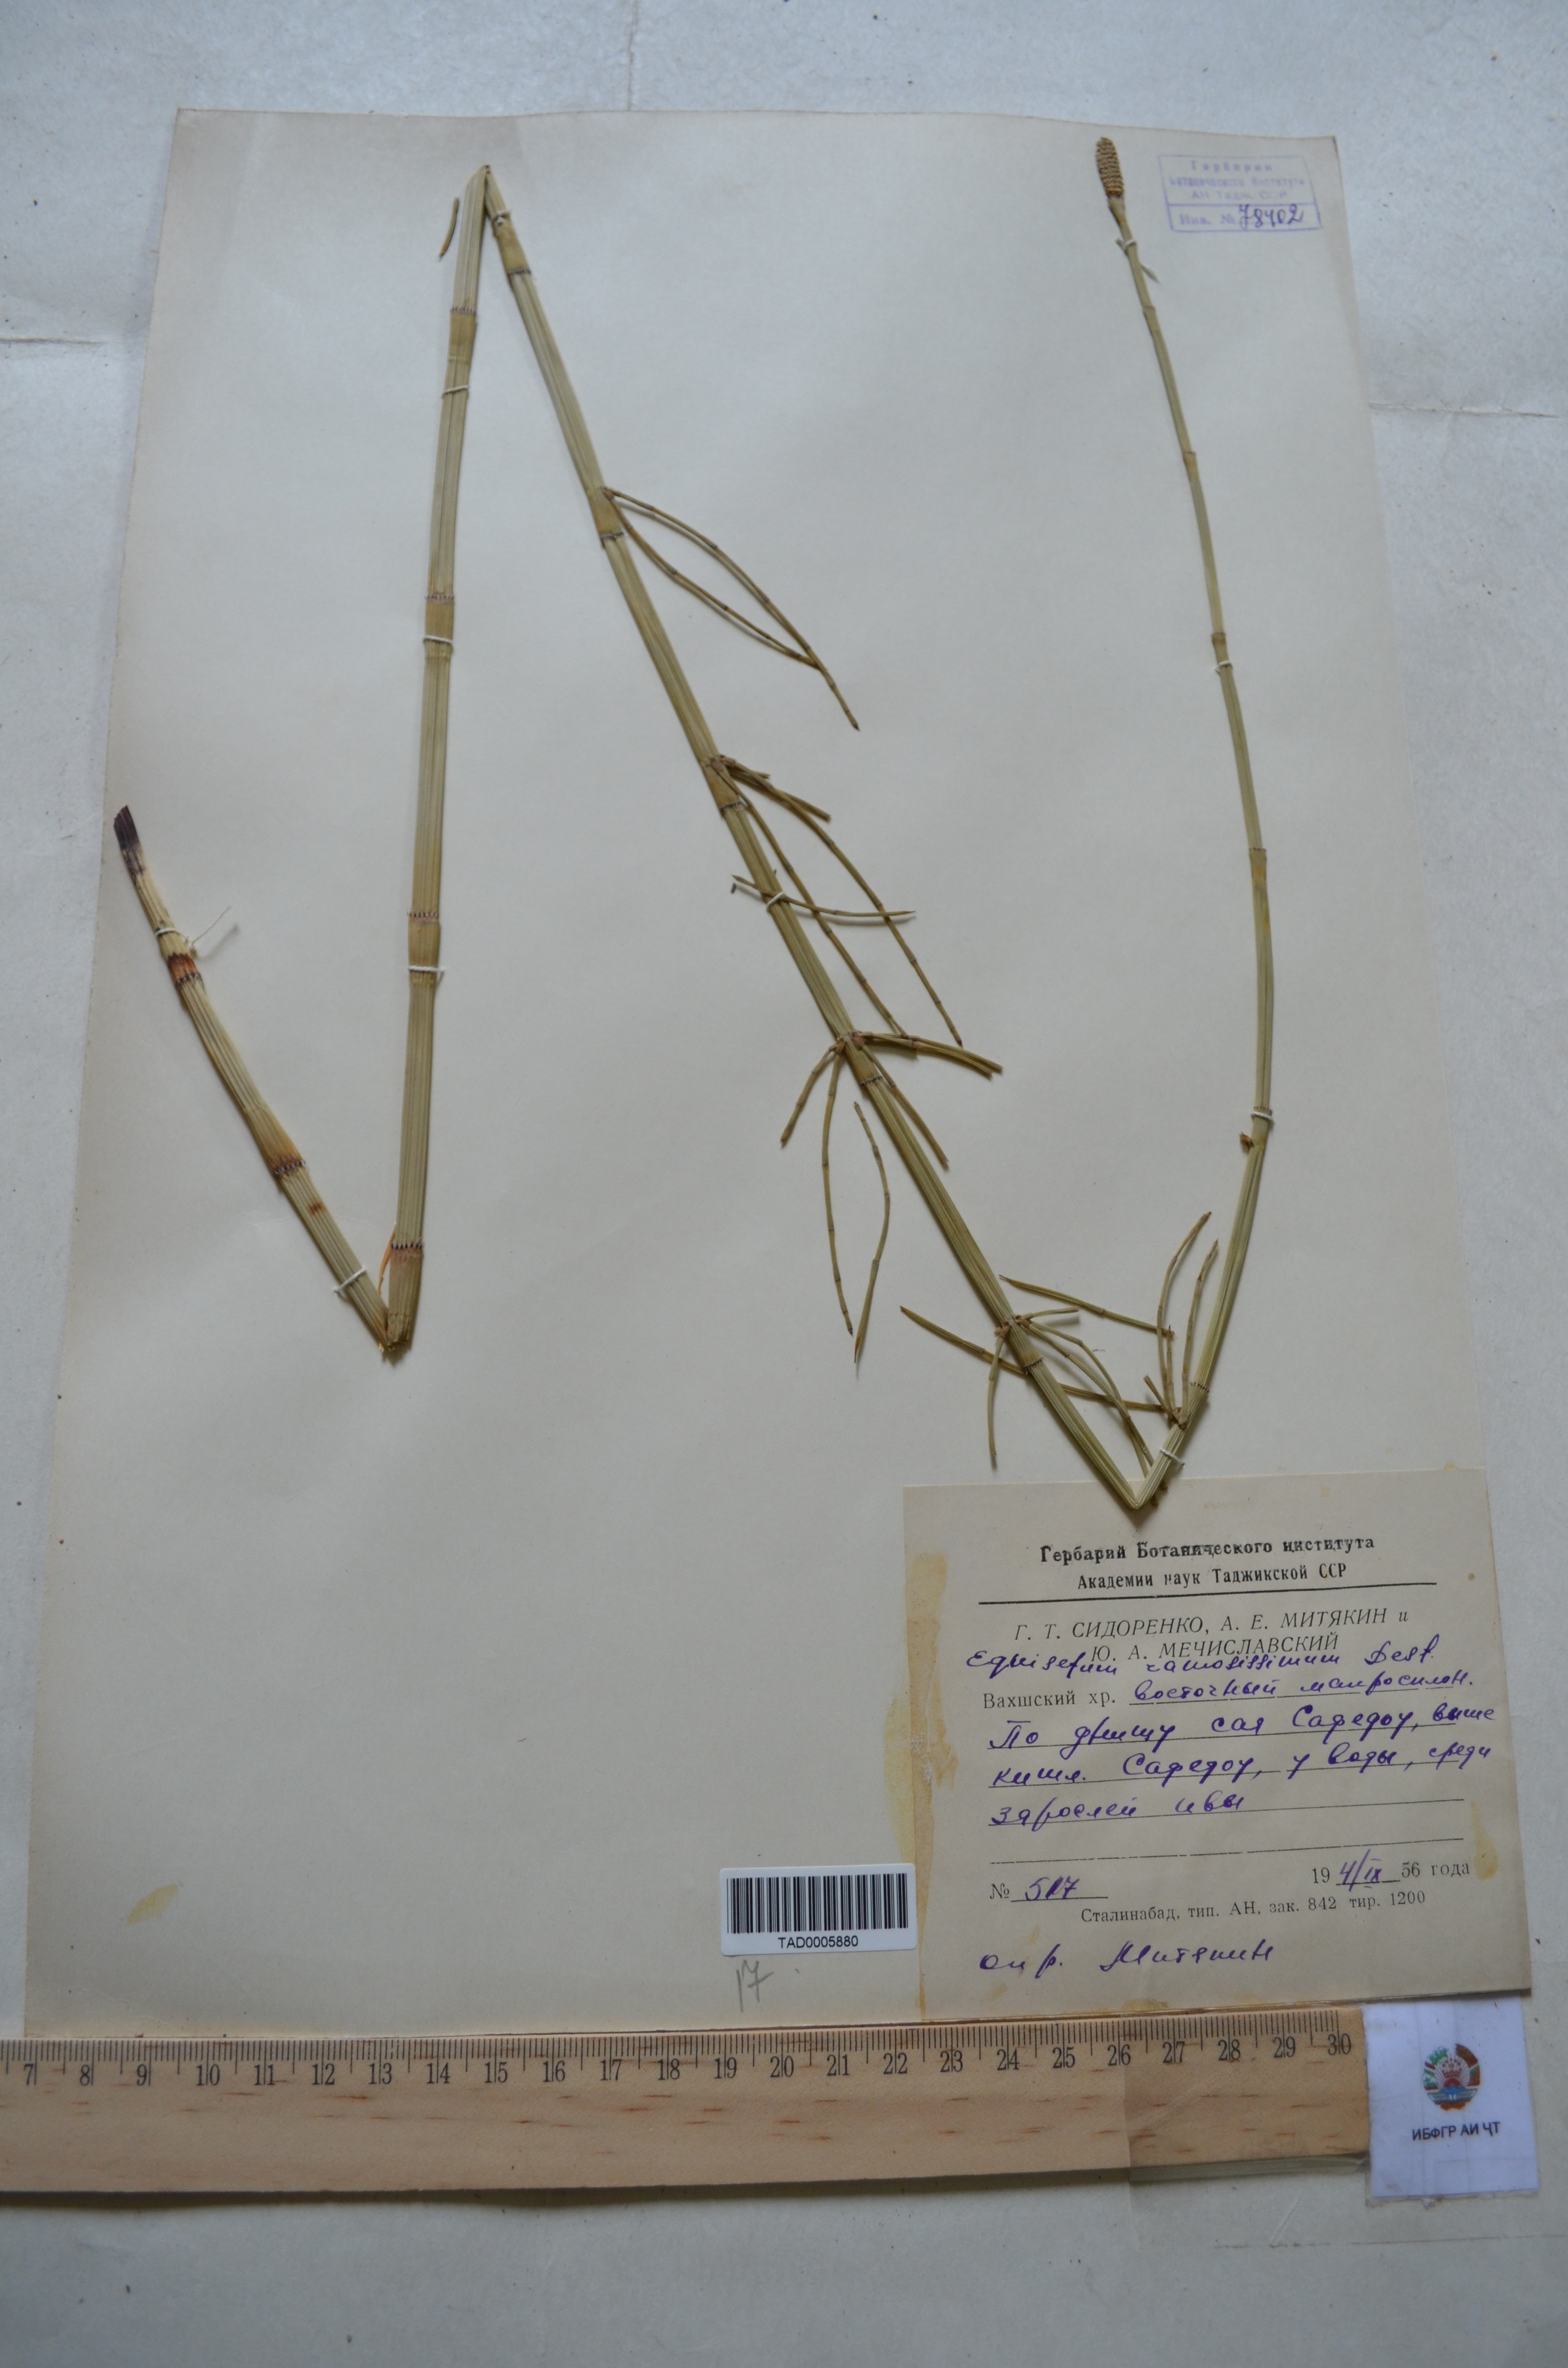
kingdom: Plantae
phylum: Tracheophyta
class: Polypodiopsida
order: Equisetales
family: Equisetaceae
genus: Equisetum
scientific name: Equisetum ramosissimum
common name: Branched horsetail
